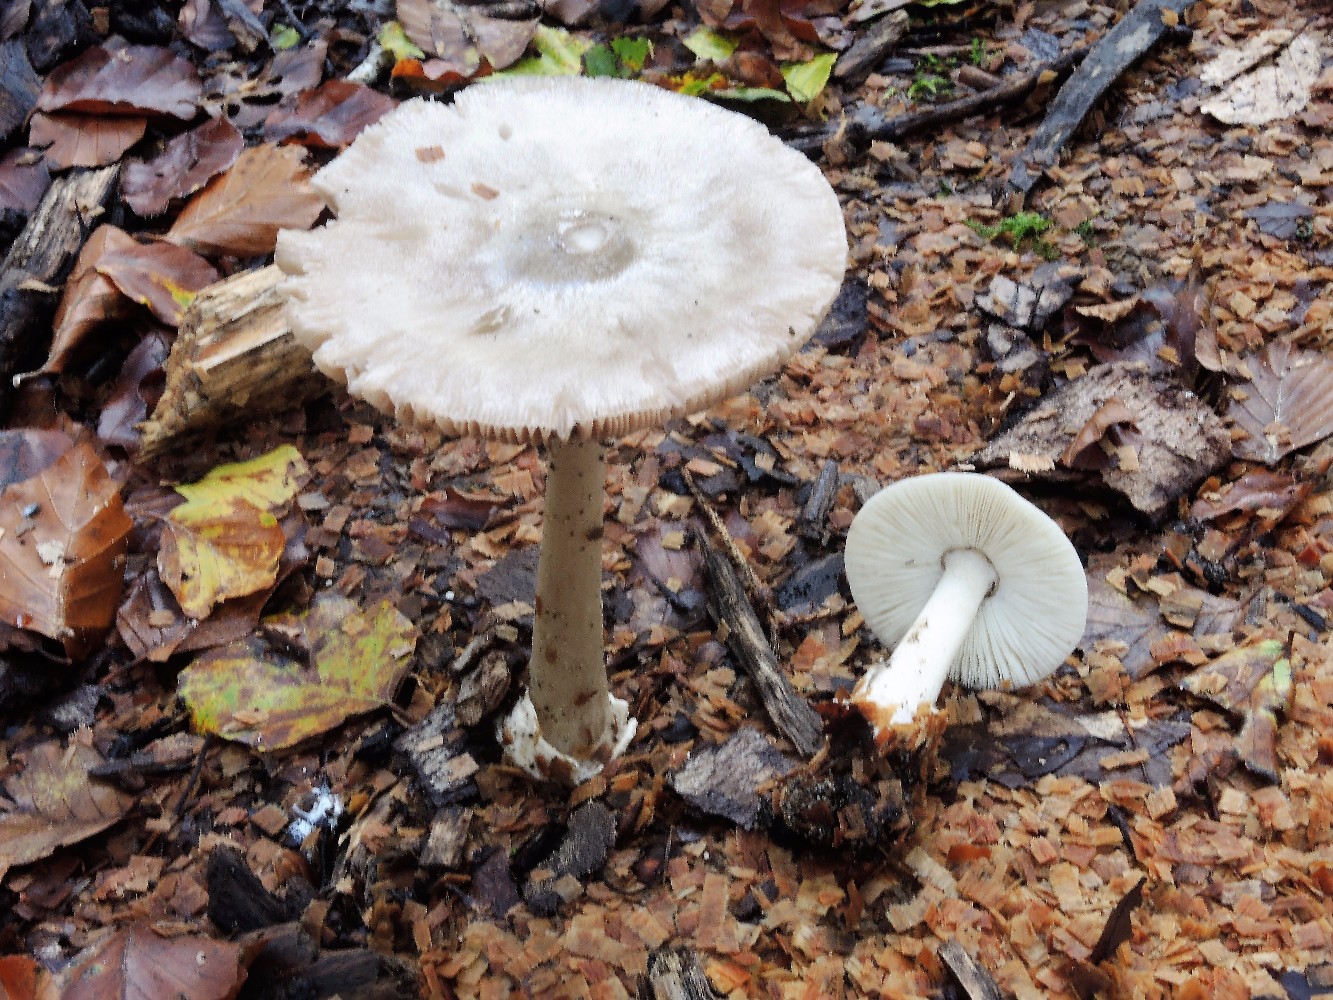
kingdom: Fungi
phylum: Basidiomycota
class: Agaricomycetes
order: Agaricales
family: Pluteaceae
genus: Volvopluteus
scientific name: Volvopluteus gloiocephalus
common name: høj posesvamp
